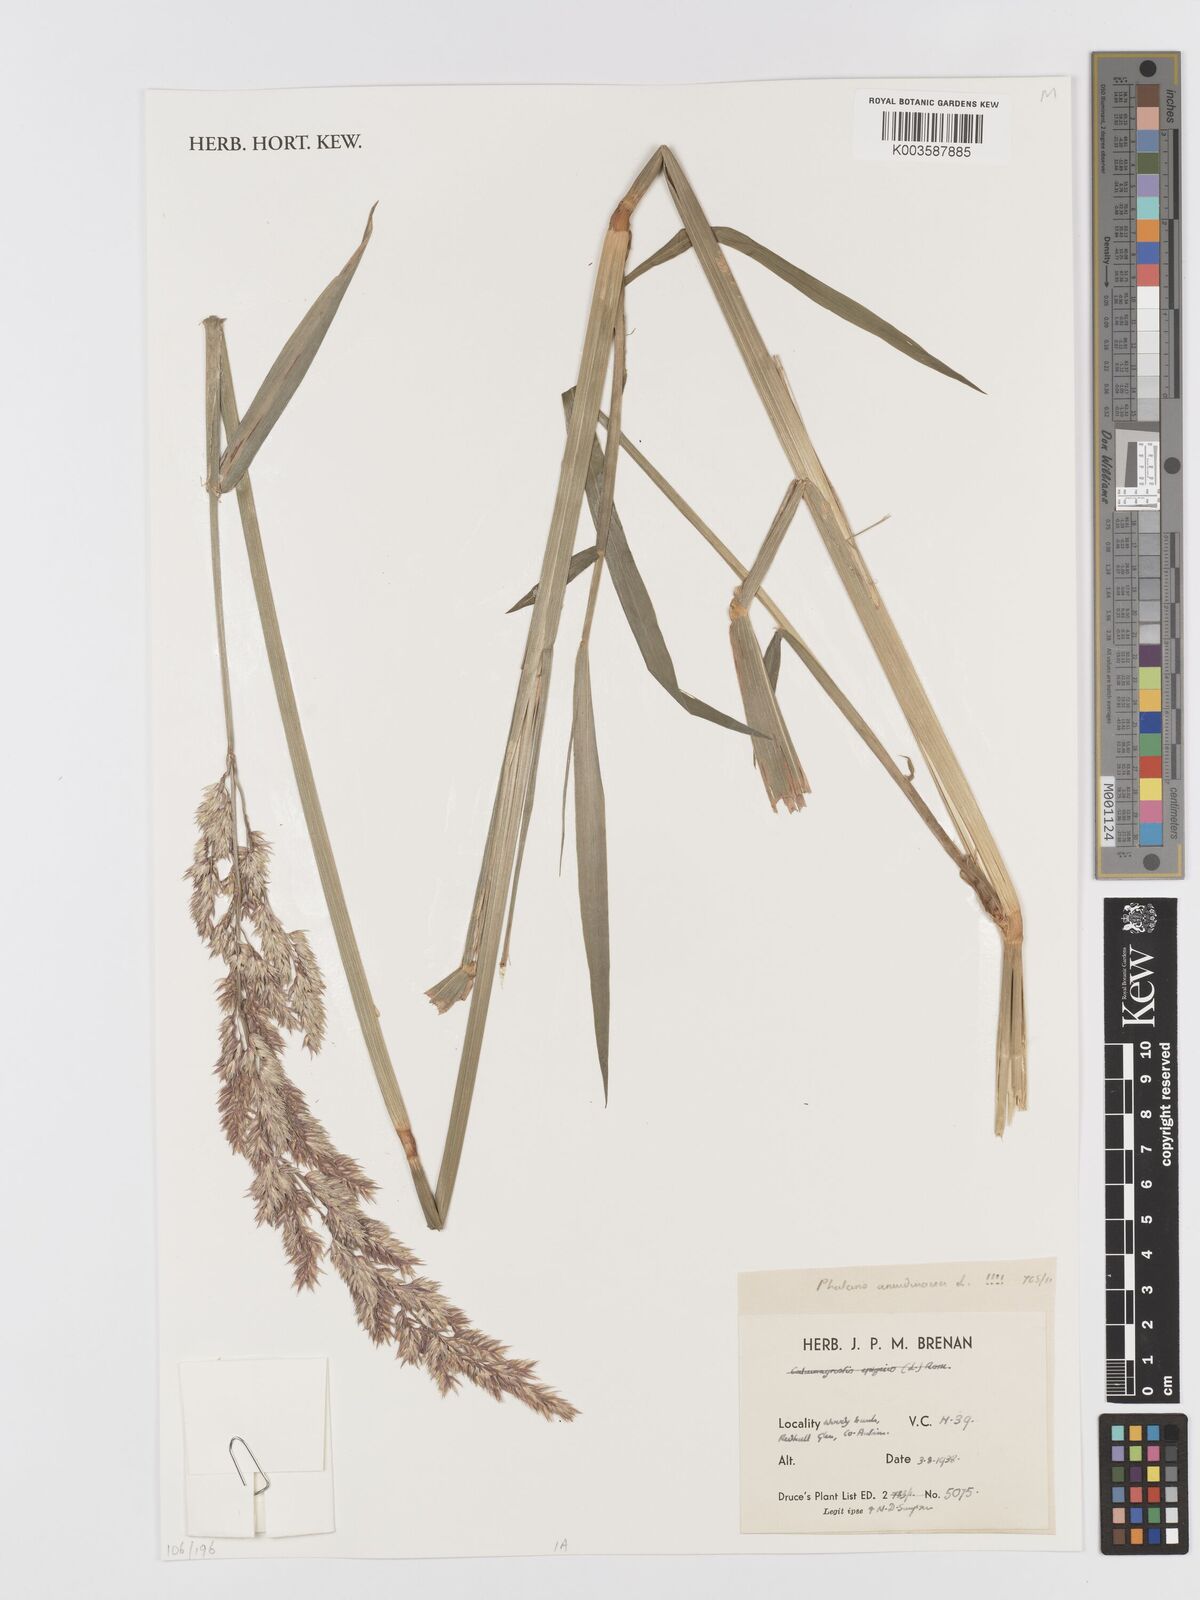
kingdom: Plantae
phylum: Tracheophyta
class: Liliopsida
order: Poales
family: Poaceae
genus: Phalaris
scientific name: Phalaris arundinacea
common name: Reed canary-grass
